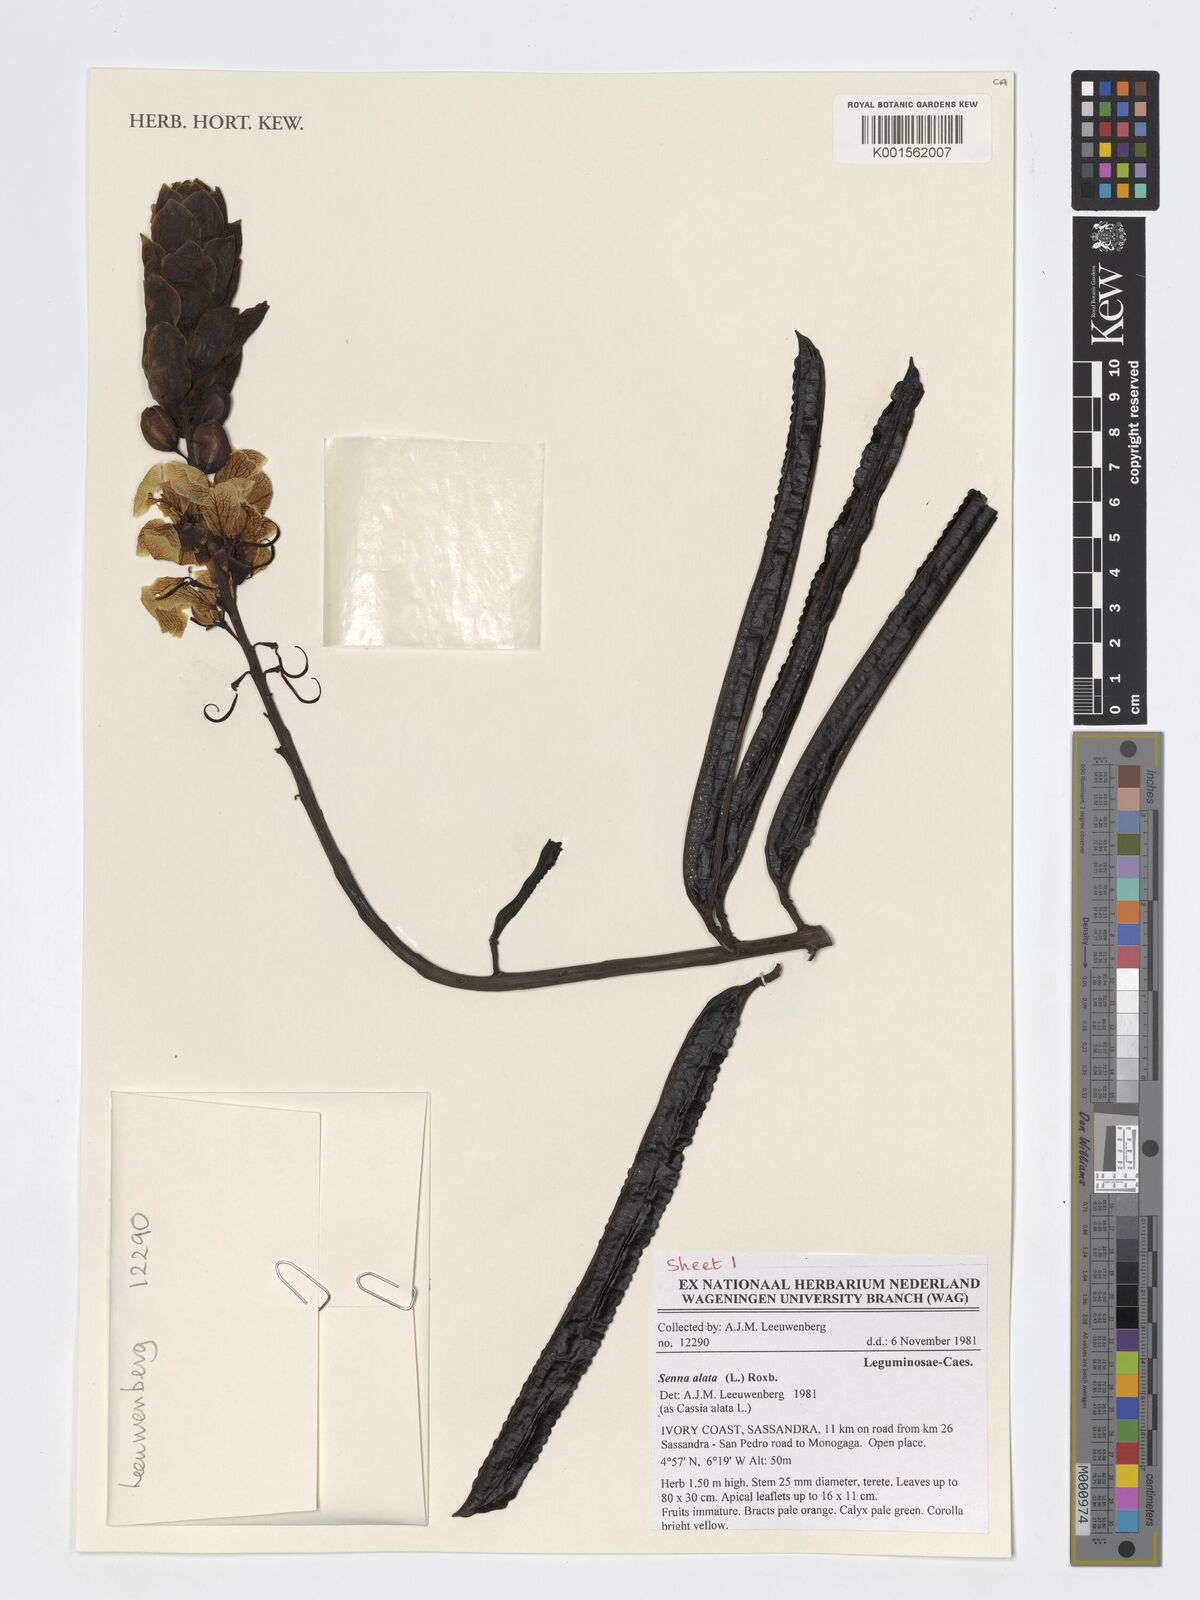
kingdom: Plantae
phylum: Tracheophyta
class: Magnoliopsida
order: Fabales
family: Fabaceae
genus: Senna
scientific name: Senna alata
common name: Emperor's candlesticks
